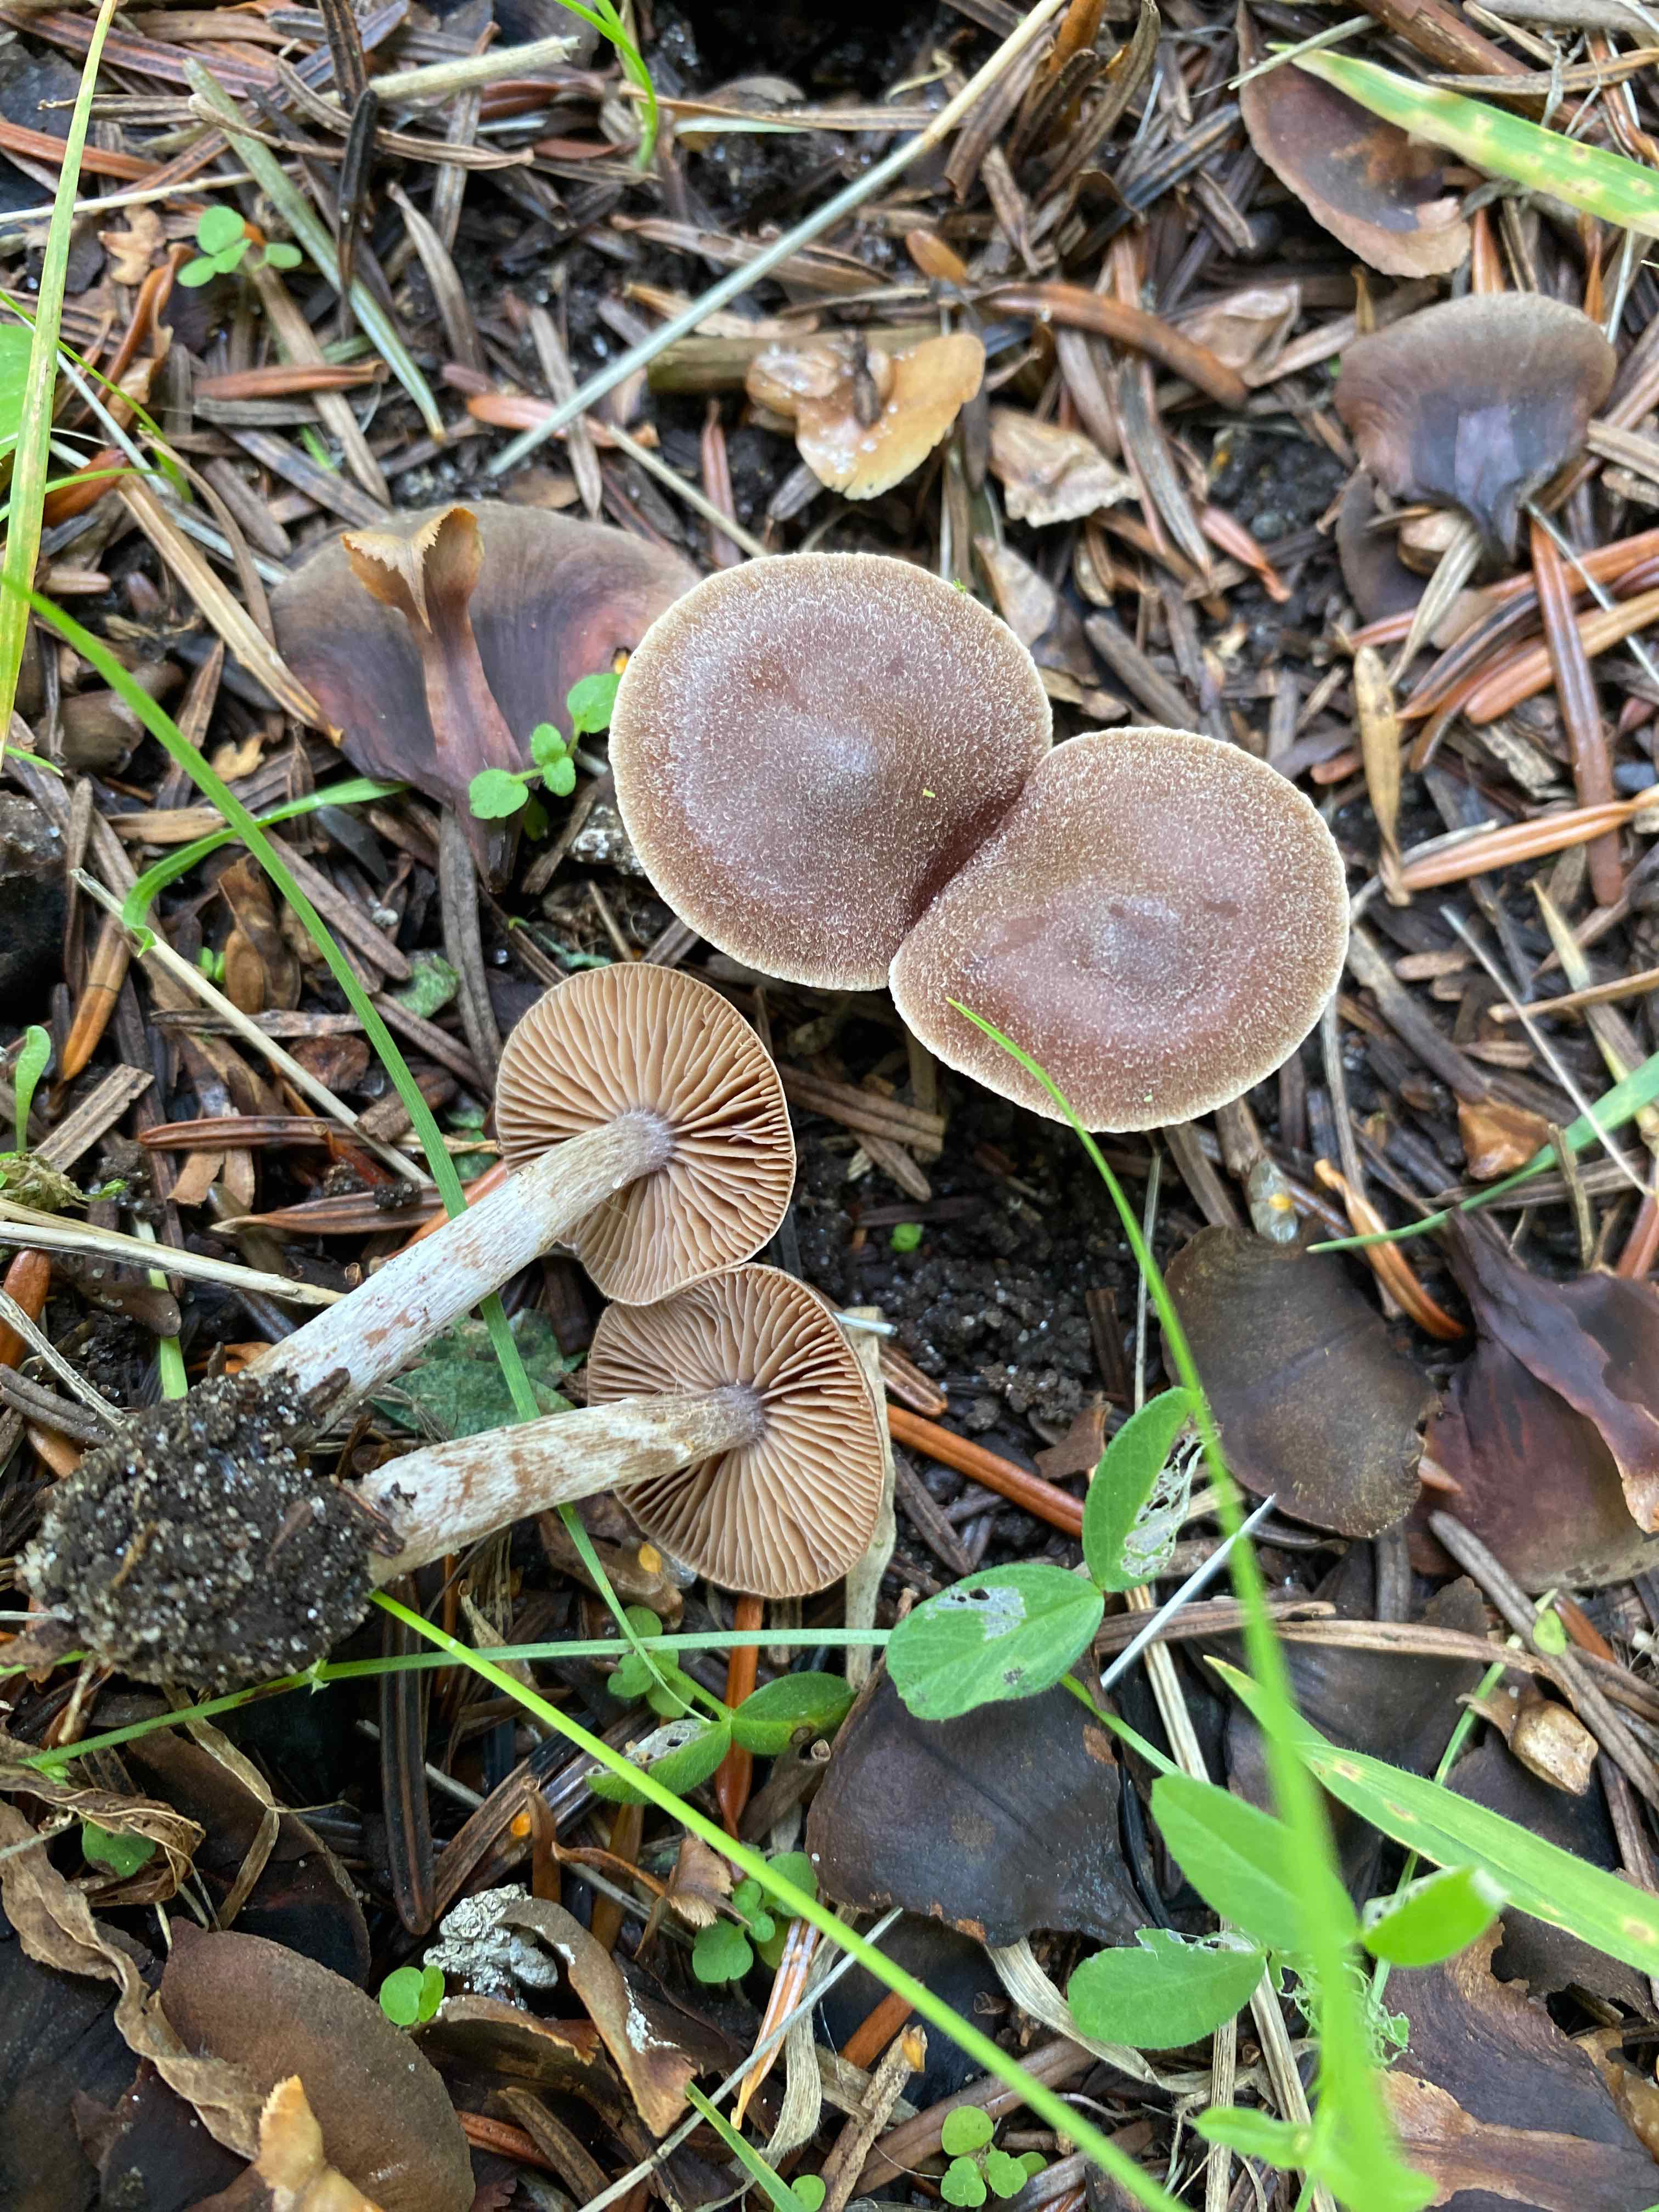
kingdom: Fungi
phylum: Basidiomycota
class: Agaricomycetes
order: Agaricales
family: Cortinariaceae
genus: Cortinarius
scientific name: Cortinarius
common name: pelargonie-slørhat
